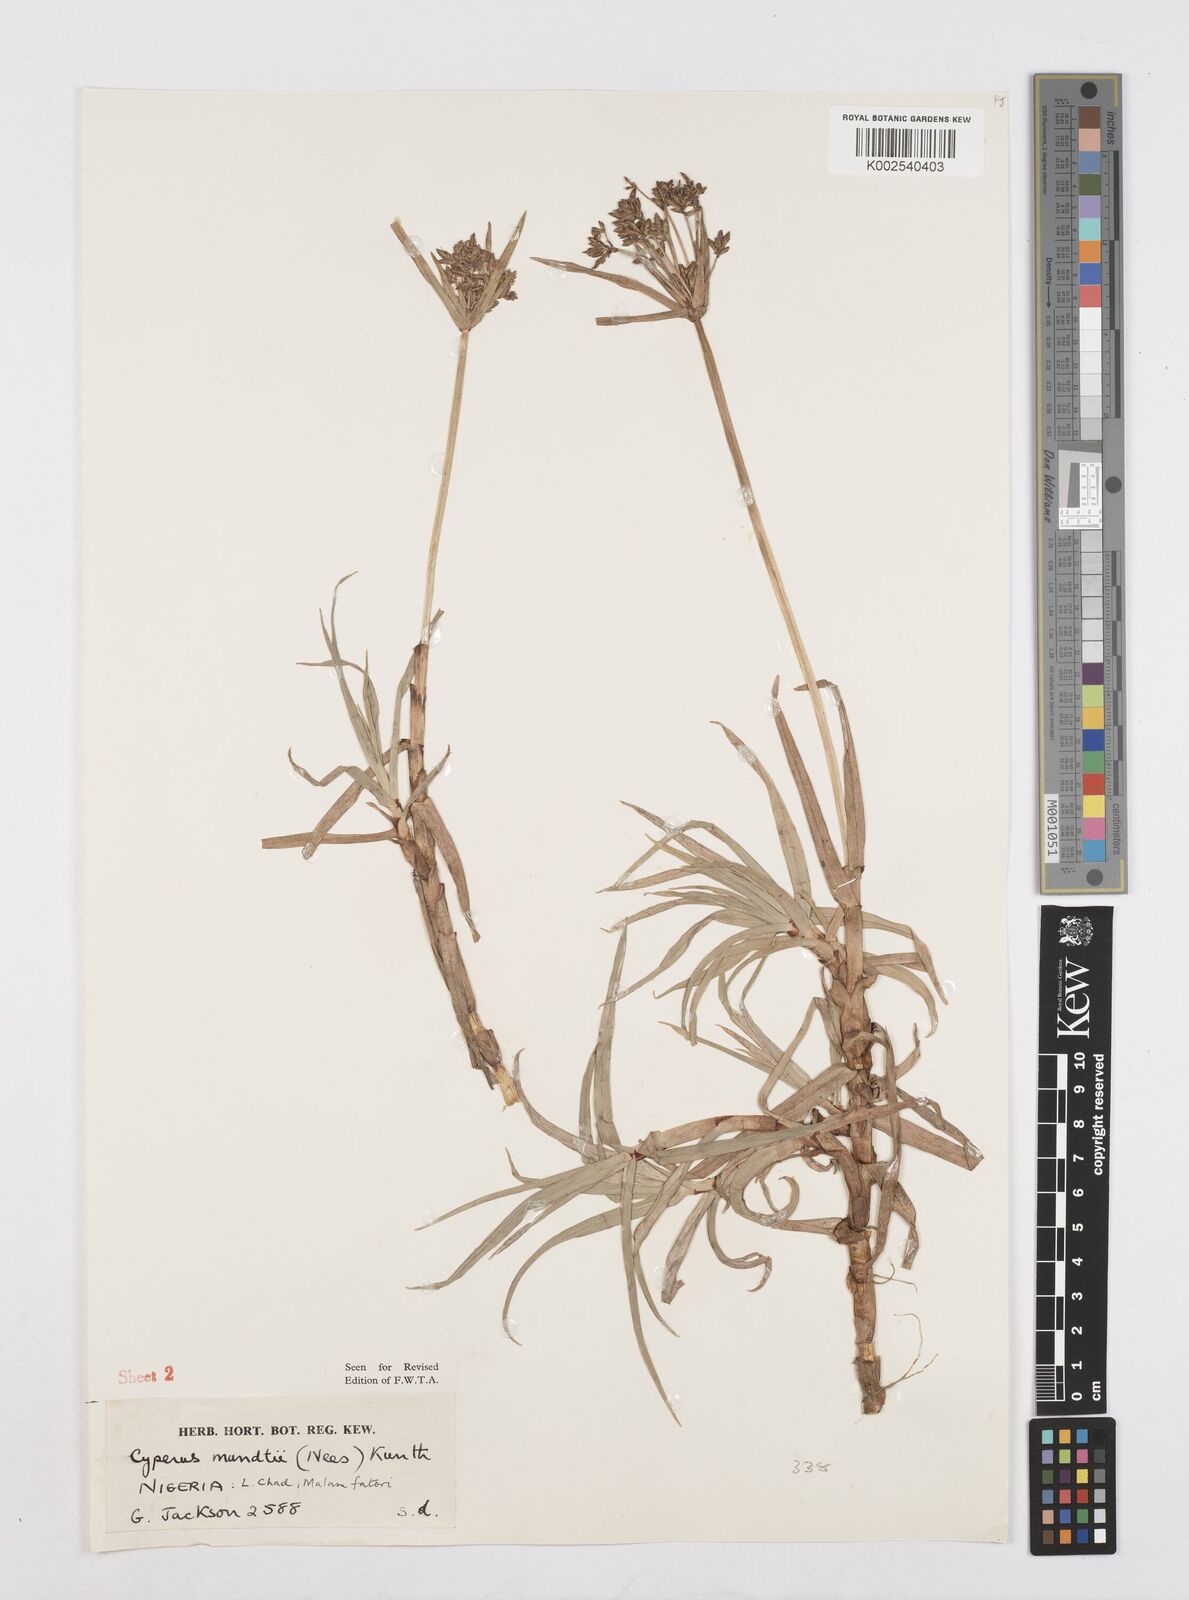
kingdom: Plantae
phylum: Tracheophyta
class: Liliopsida
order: Poales
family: Cyperaceae
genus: Cyperus
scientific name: Cyperus mundii
